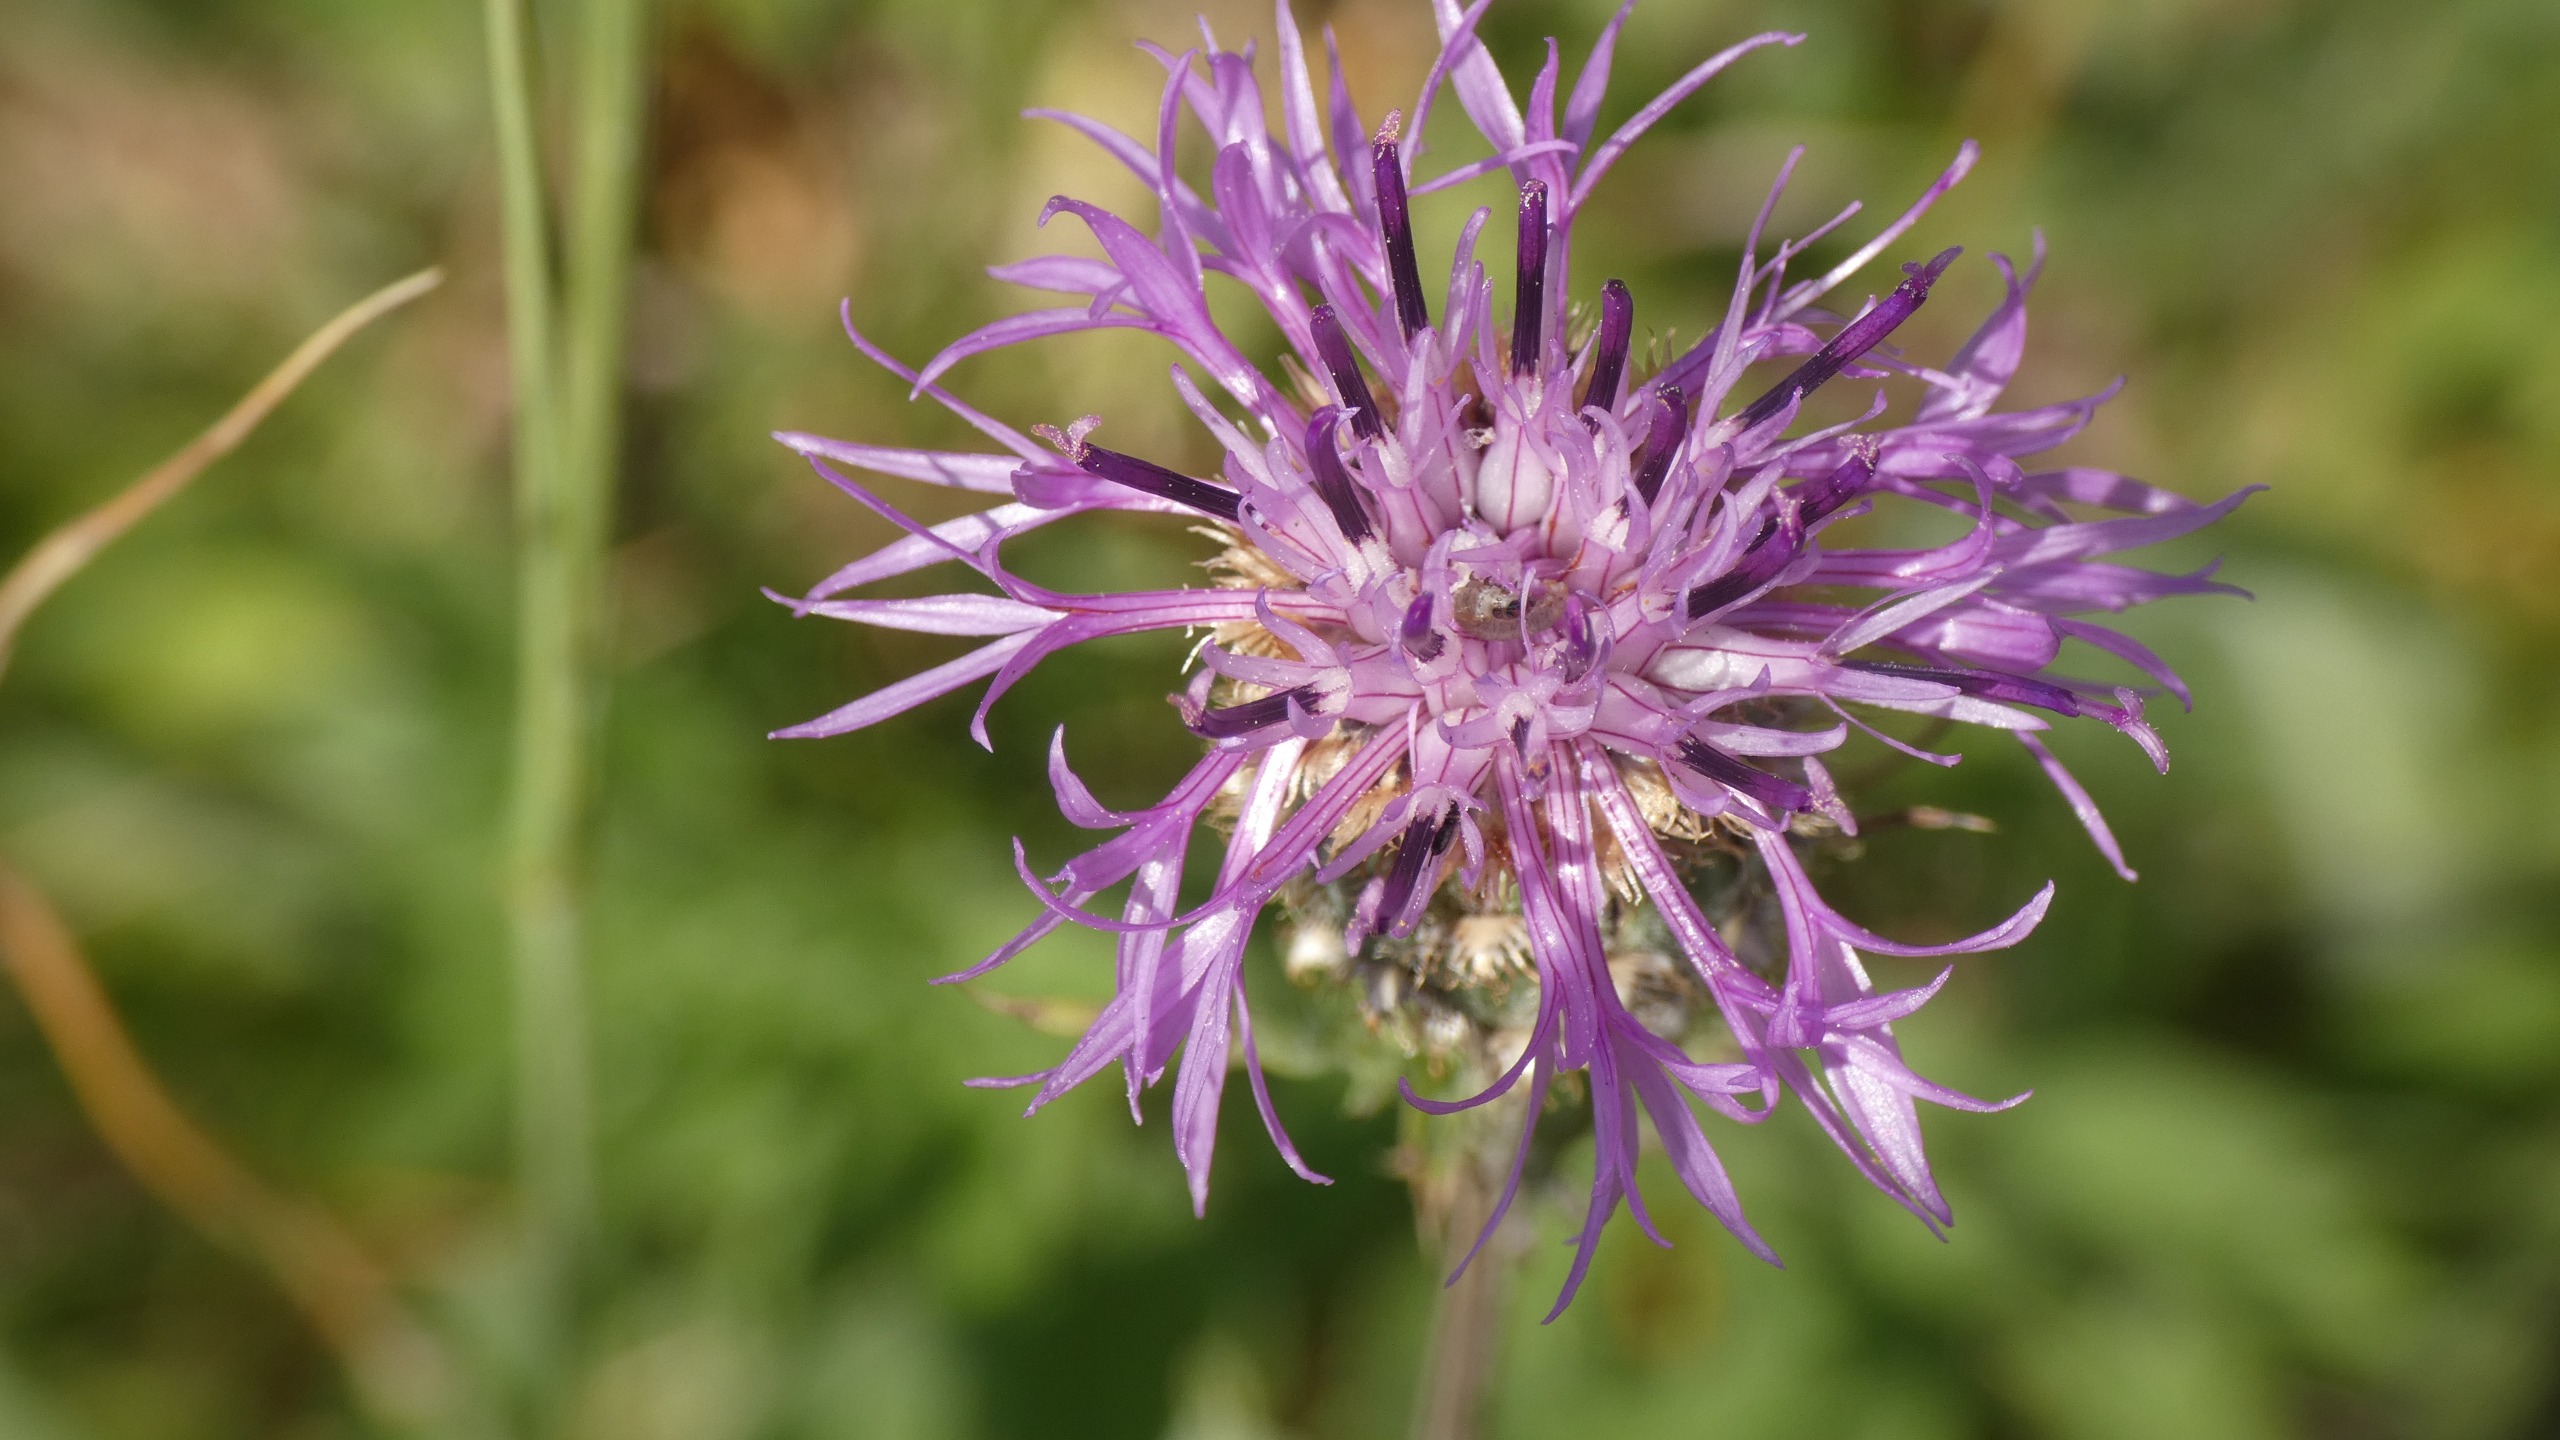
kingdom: Plantae
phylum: Tracheophyta
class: Magnoliopsida
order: Asterales
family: Asteraceae
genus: Centaurea
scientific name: Centaurea scabiosa
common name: Stor knopurt
